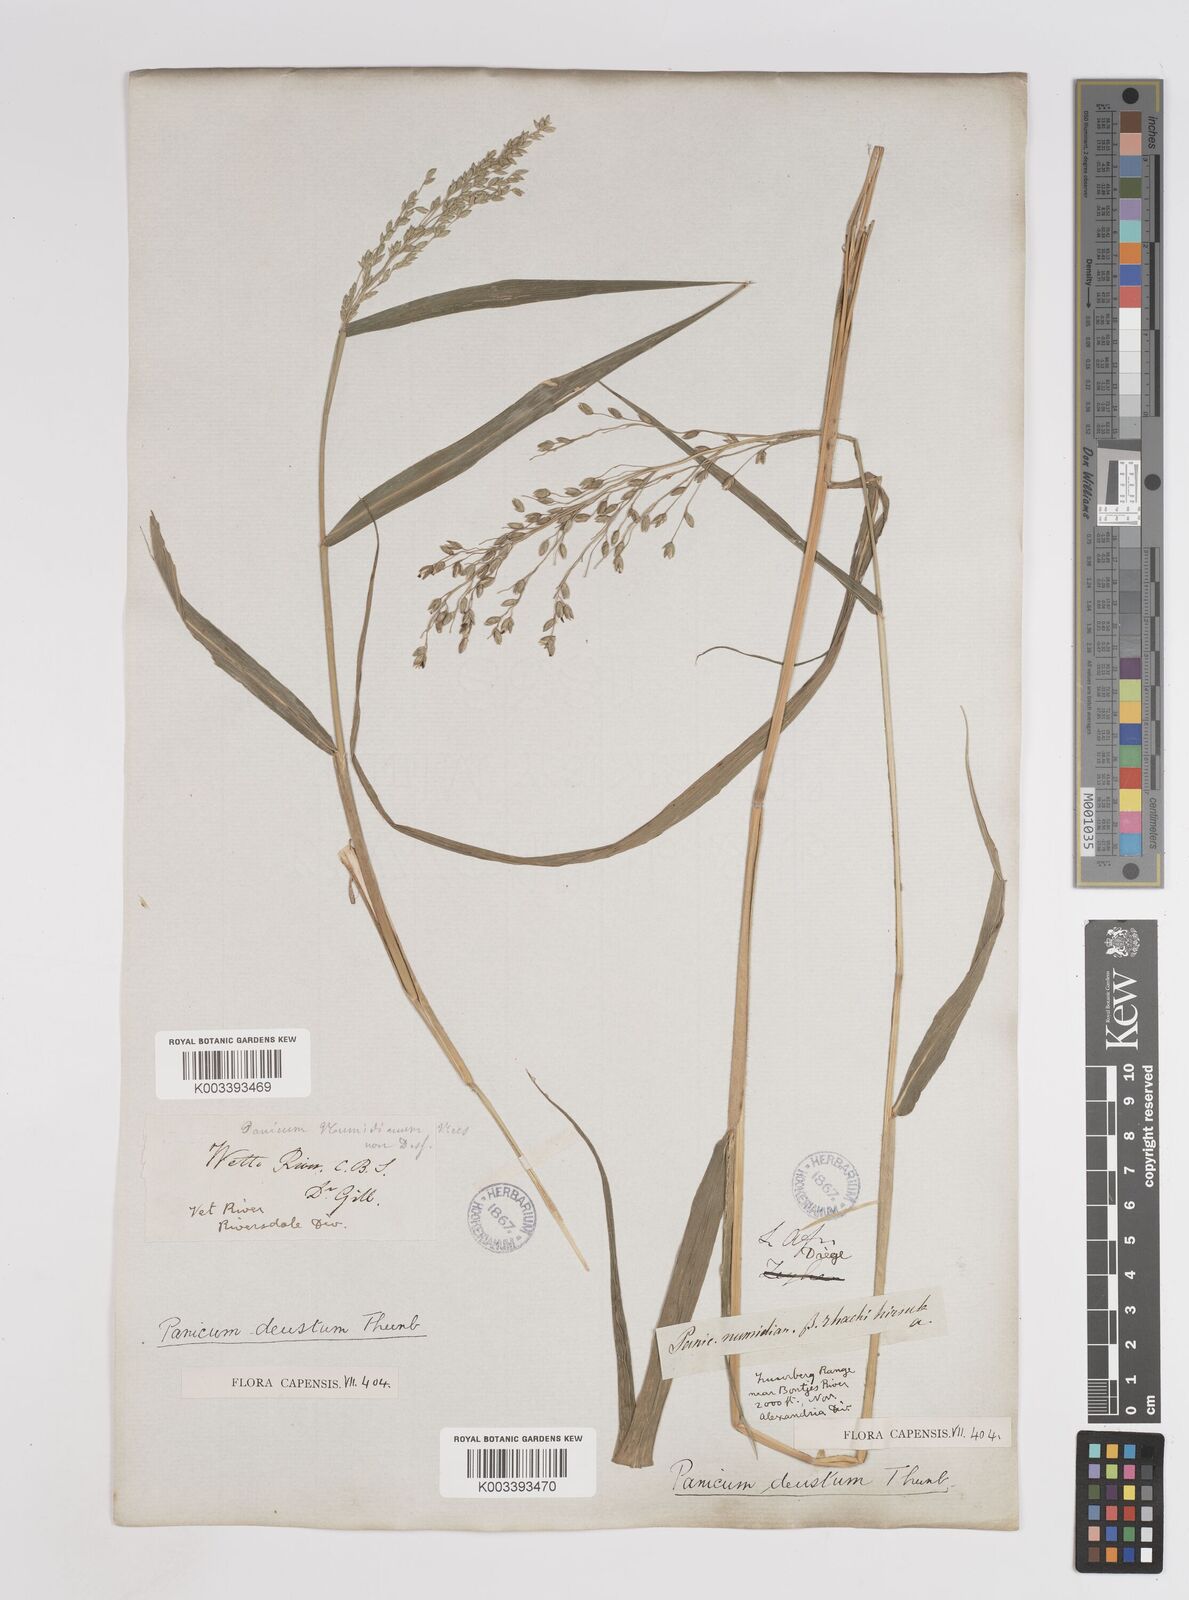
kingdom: Plantae
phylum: Tracheophyta
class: Liliopsida
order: Poales
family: Poaceae
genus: Panicum
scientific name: Panicum deustum
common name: Reed panicum
